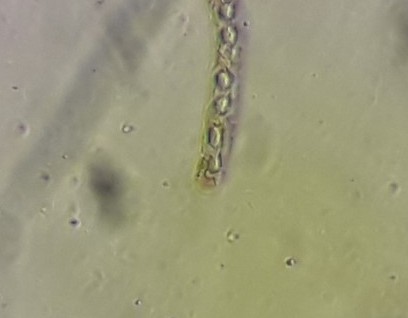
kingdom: Fungi
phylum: Ascomycota
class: Sordariomycetes
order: Xylariales
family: Xylariaceae
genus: Nemania
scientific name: Nemania serpens
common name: almindelig kuldyne
